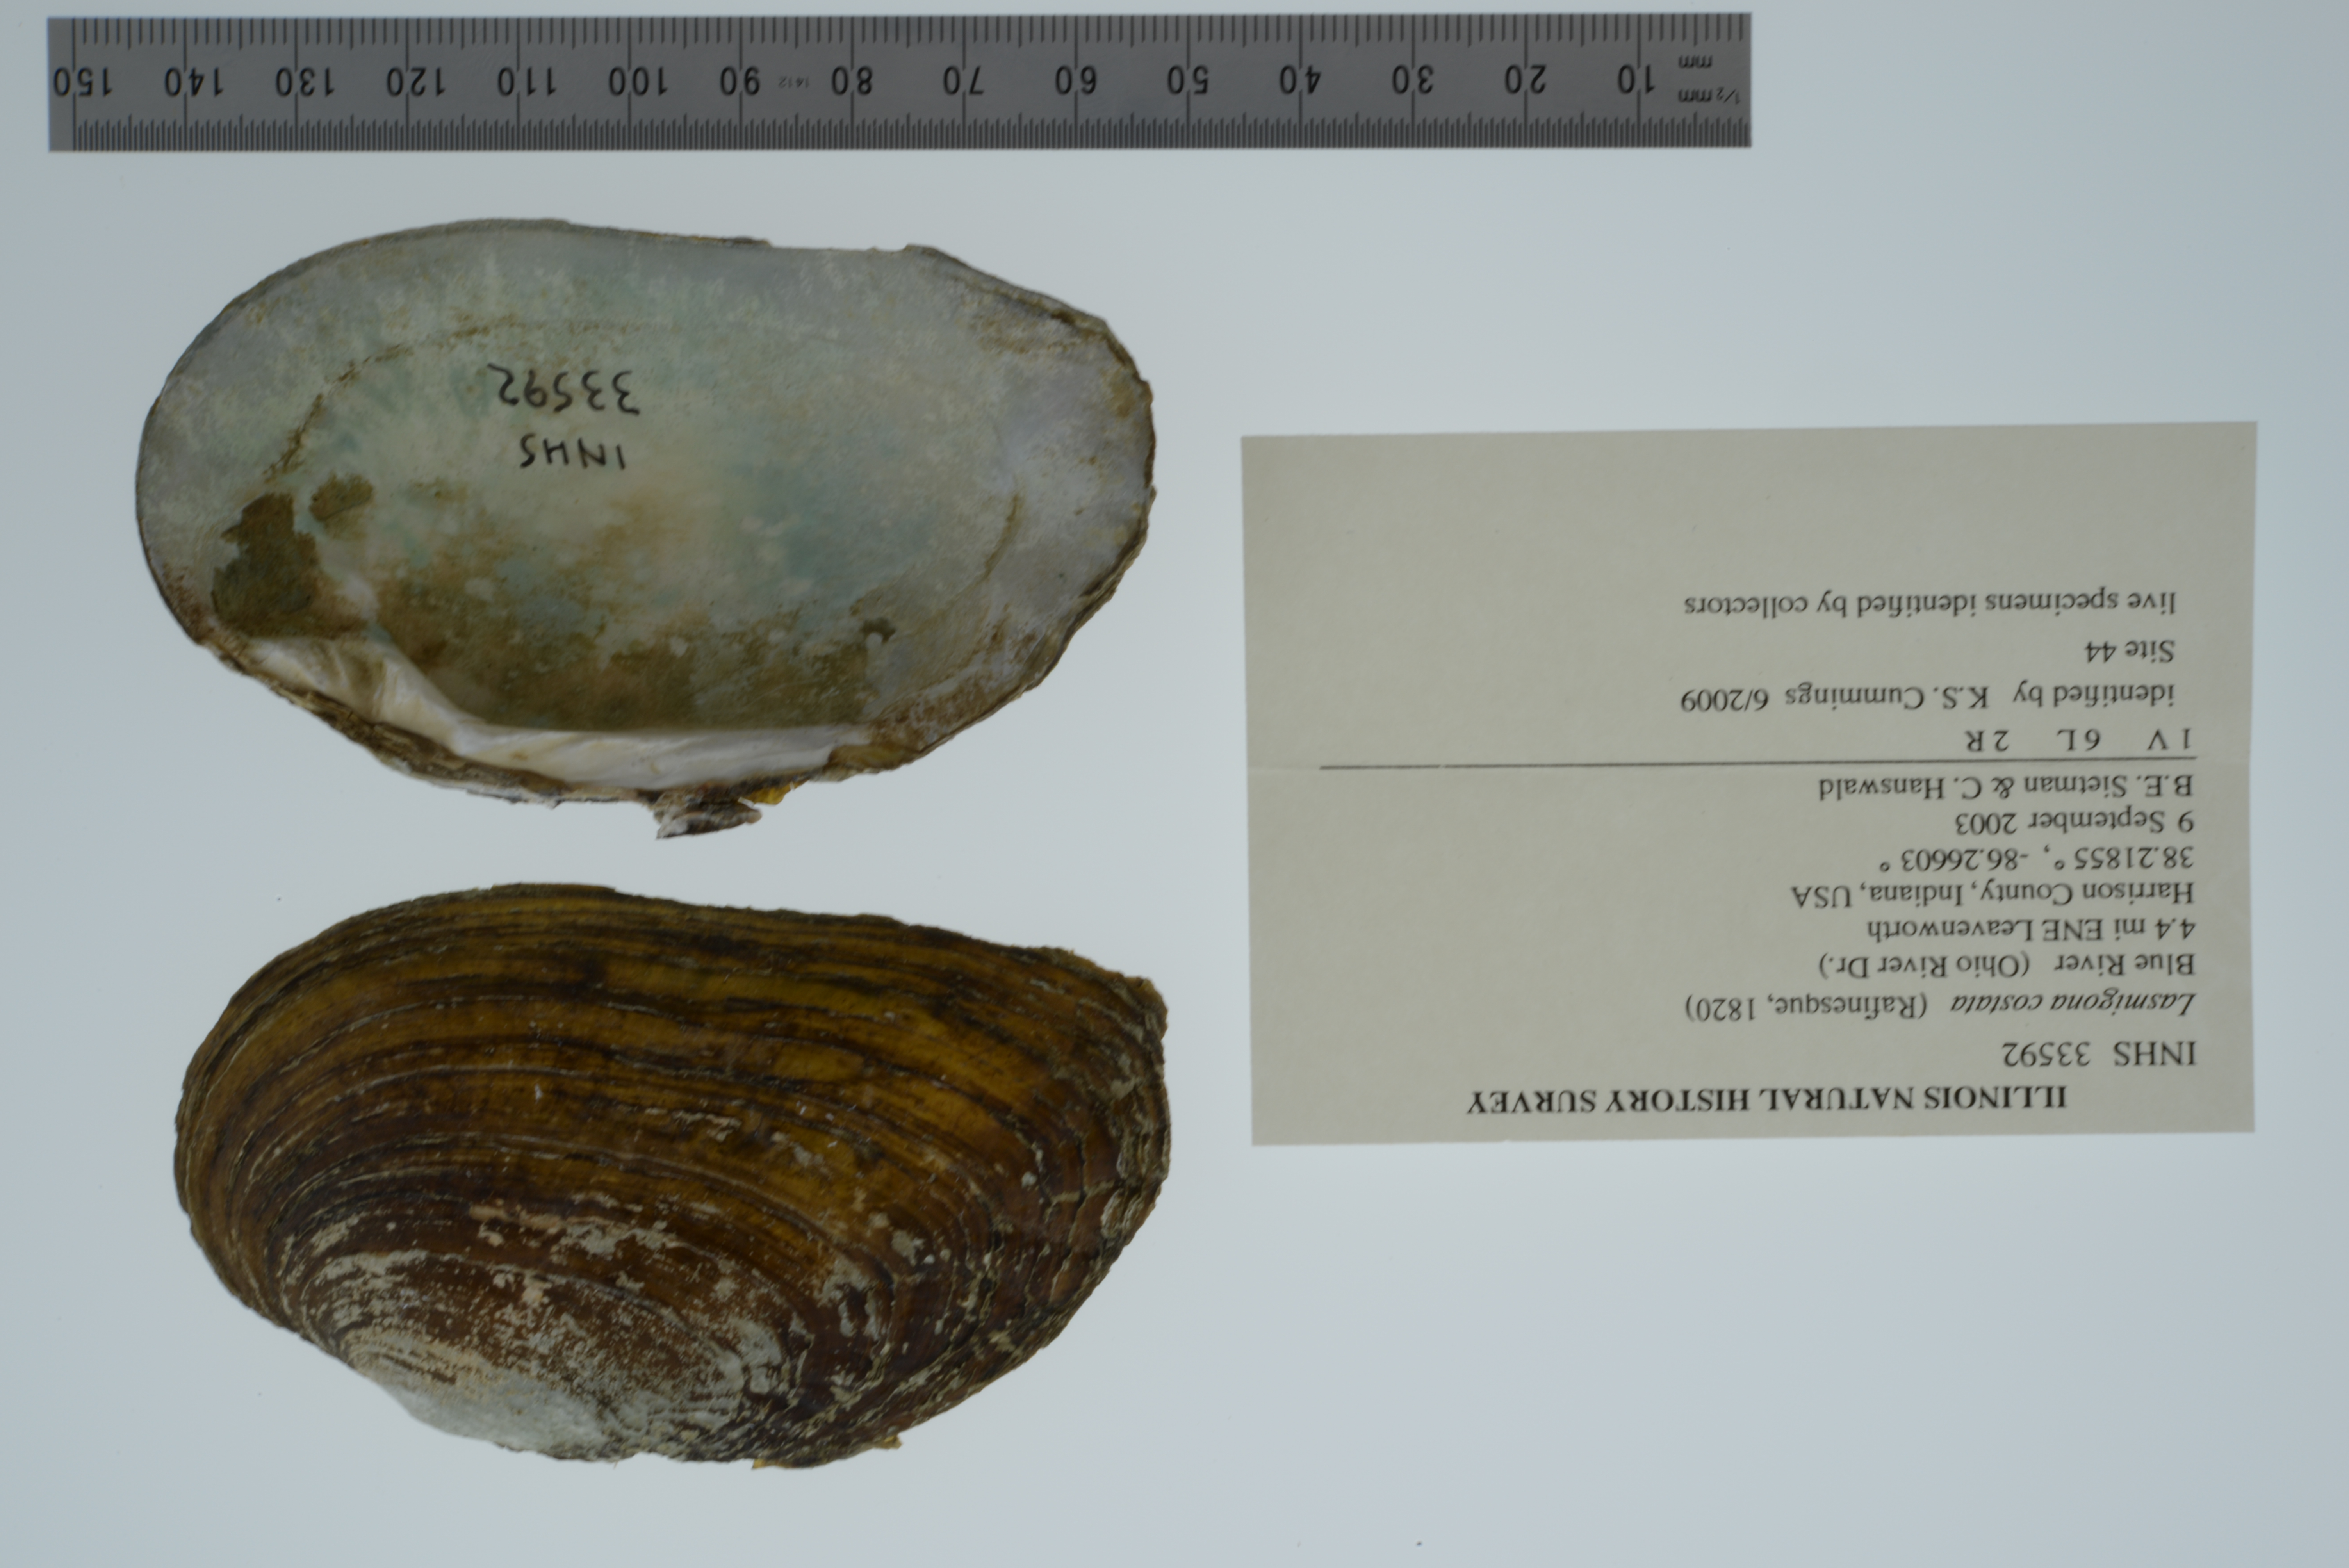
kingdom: Animalia
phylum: Mollusca
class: Bivalvia
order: Unionida
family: Unionidae
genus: Lasmigona
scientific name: Lasmigona costata
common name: Flutedshell
